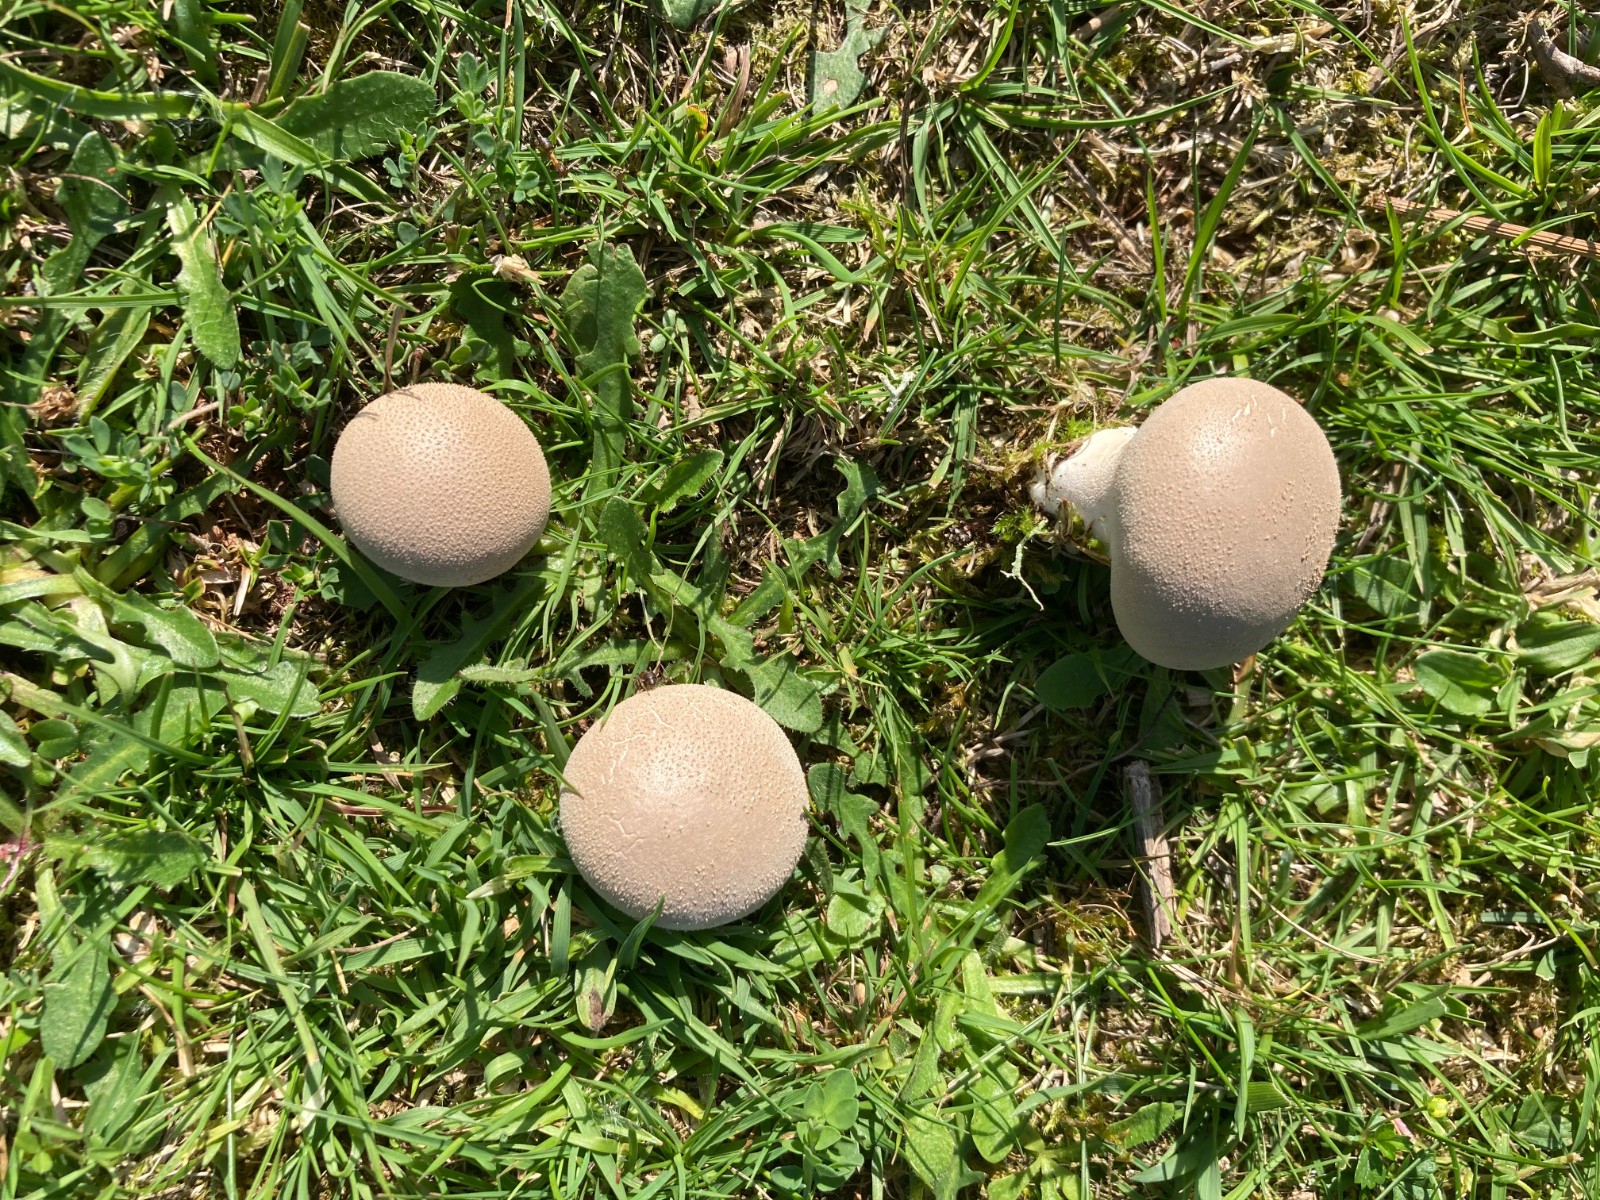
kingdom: Fungi
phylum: Basidiomycota
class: Agaricomycetes
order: Agaricales
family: Lycoperdaceae
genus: Lycoperdon
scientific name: Lycoperdon lividum
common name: mark-støvbold
